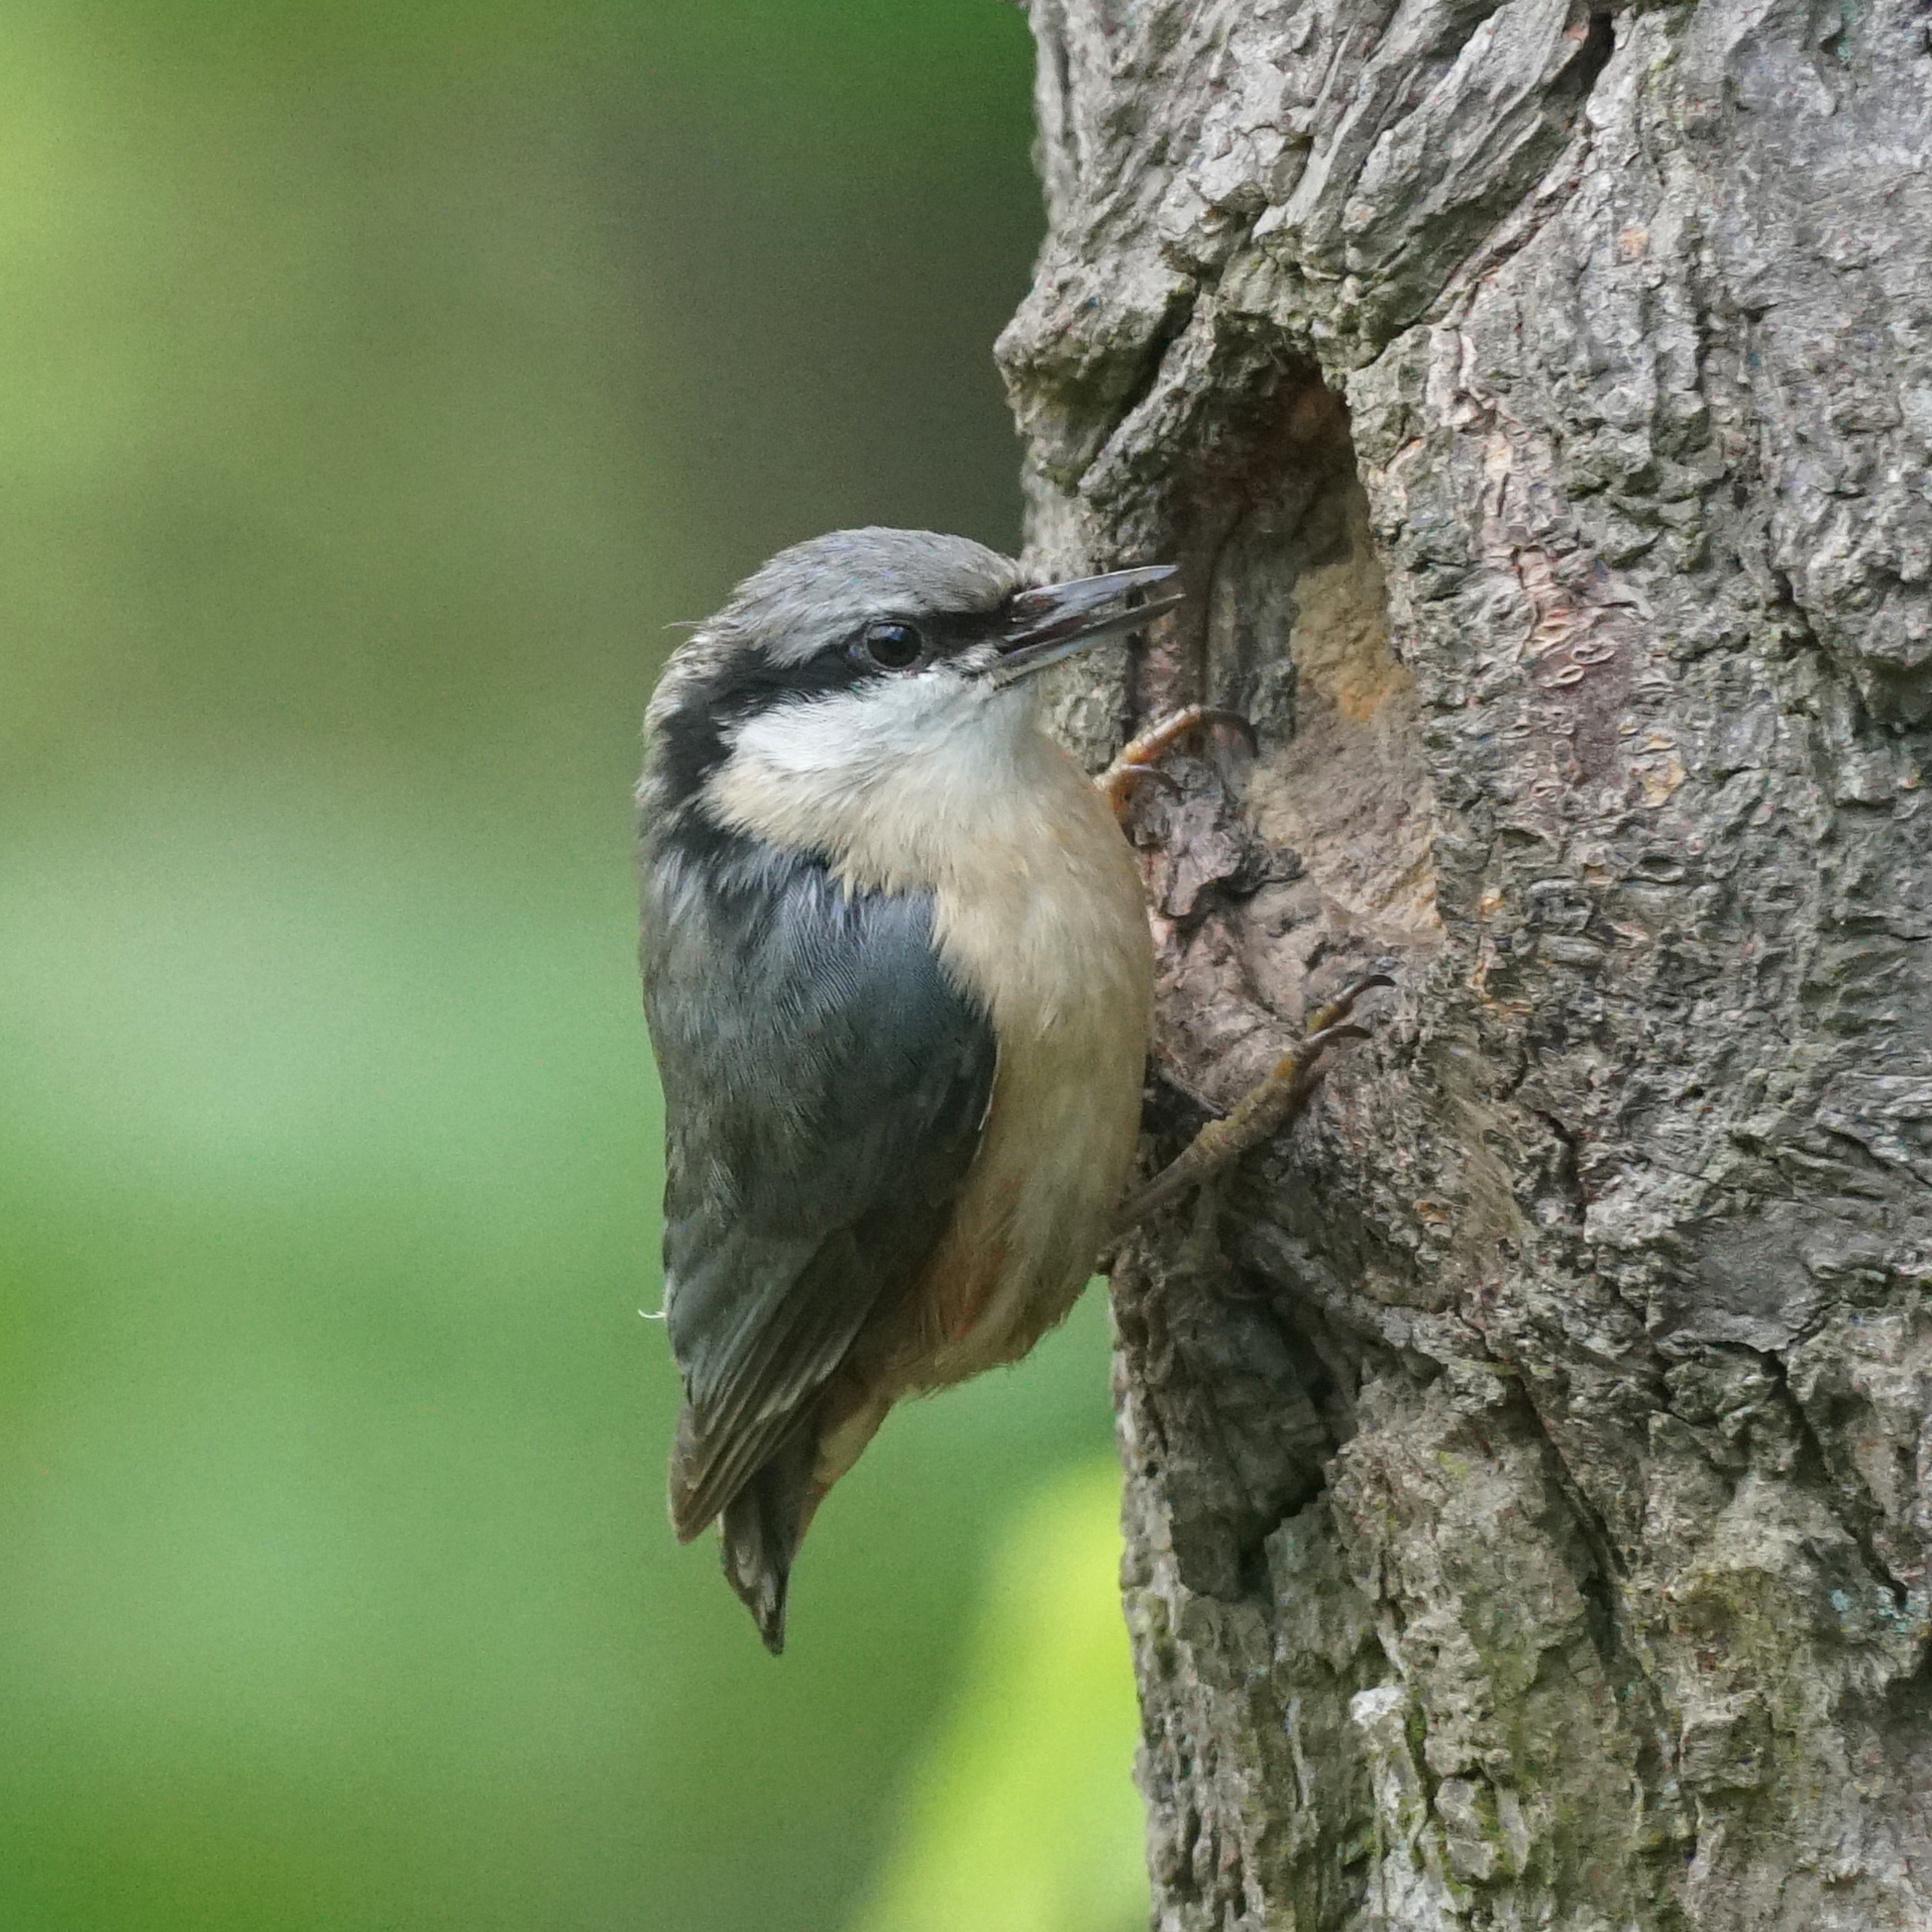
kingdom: Animalia
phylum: Chordata
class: Aves
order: Passeriformes
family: Sittidae
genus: Sitta
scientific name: Sitta europaea
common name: Spætmejse
